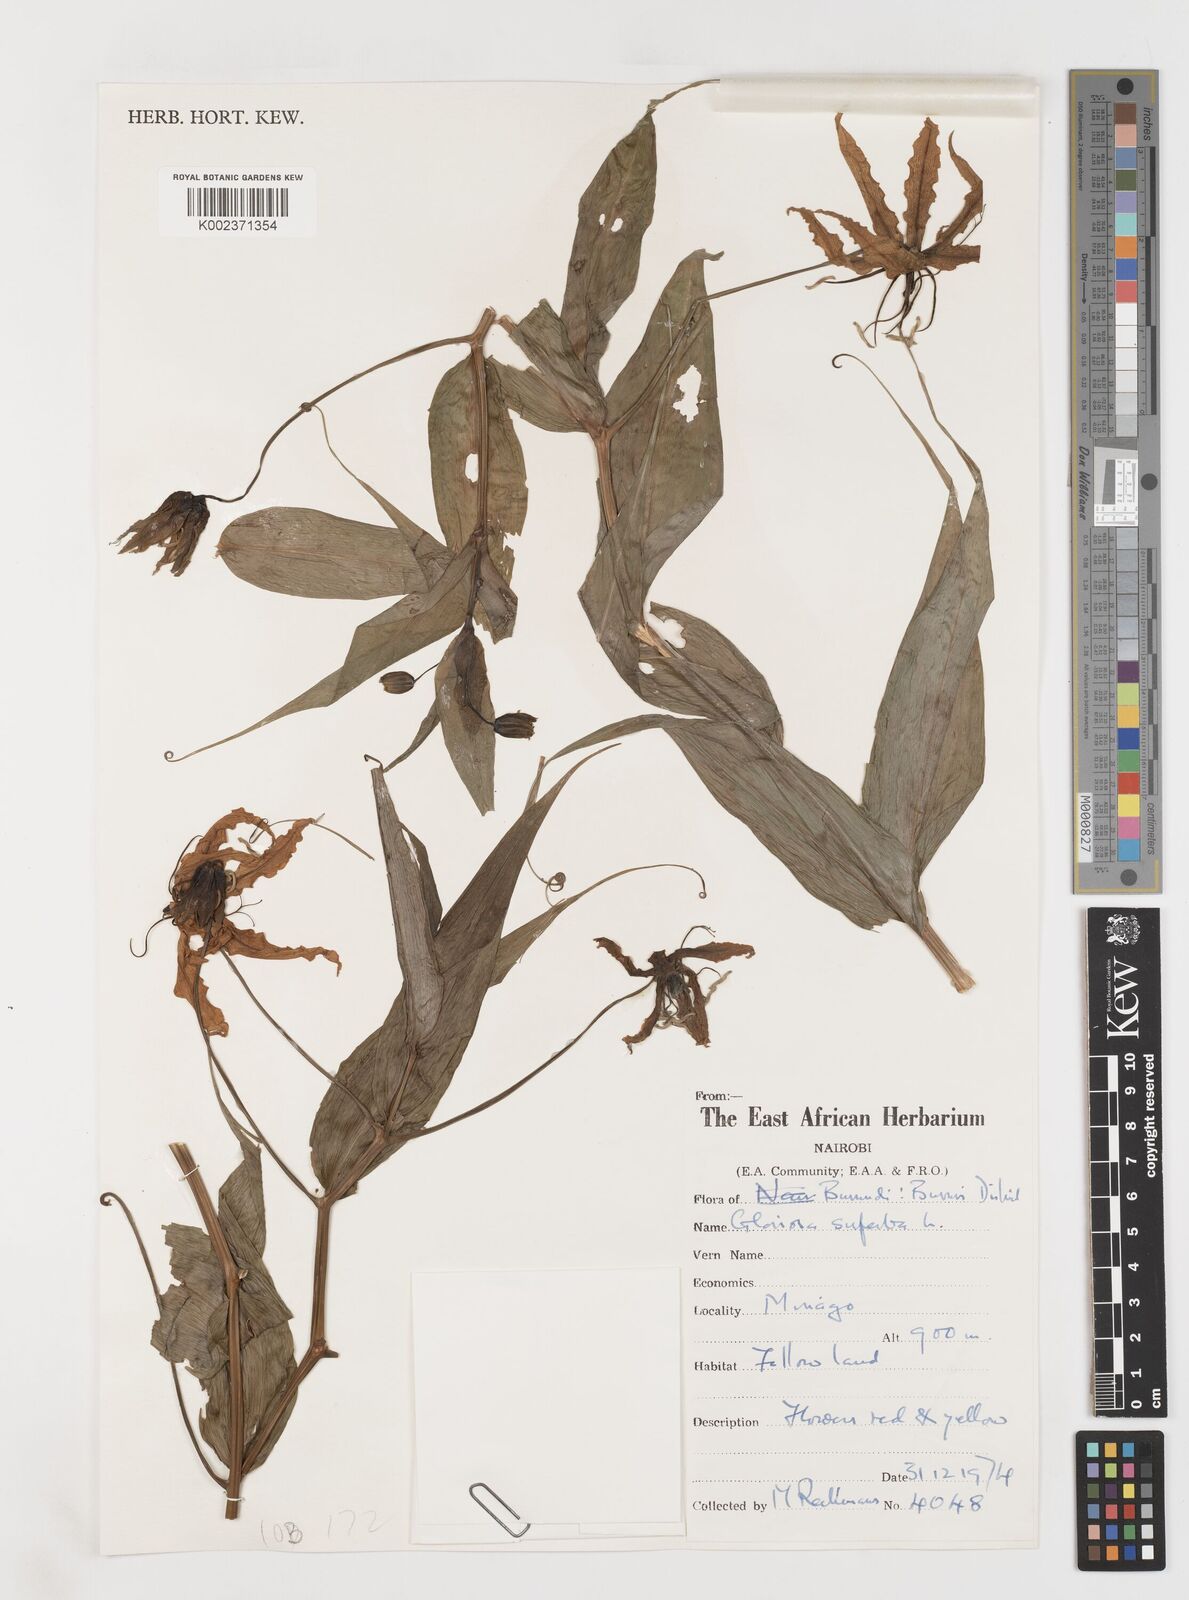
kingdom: Plantae
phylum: Tracheophyta
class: Liliopsida
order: Liliales
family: Colchicaceae
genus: Gloriosa
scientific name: Gloriosa superba
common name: Flame lily
